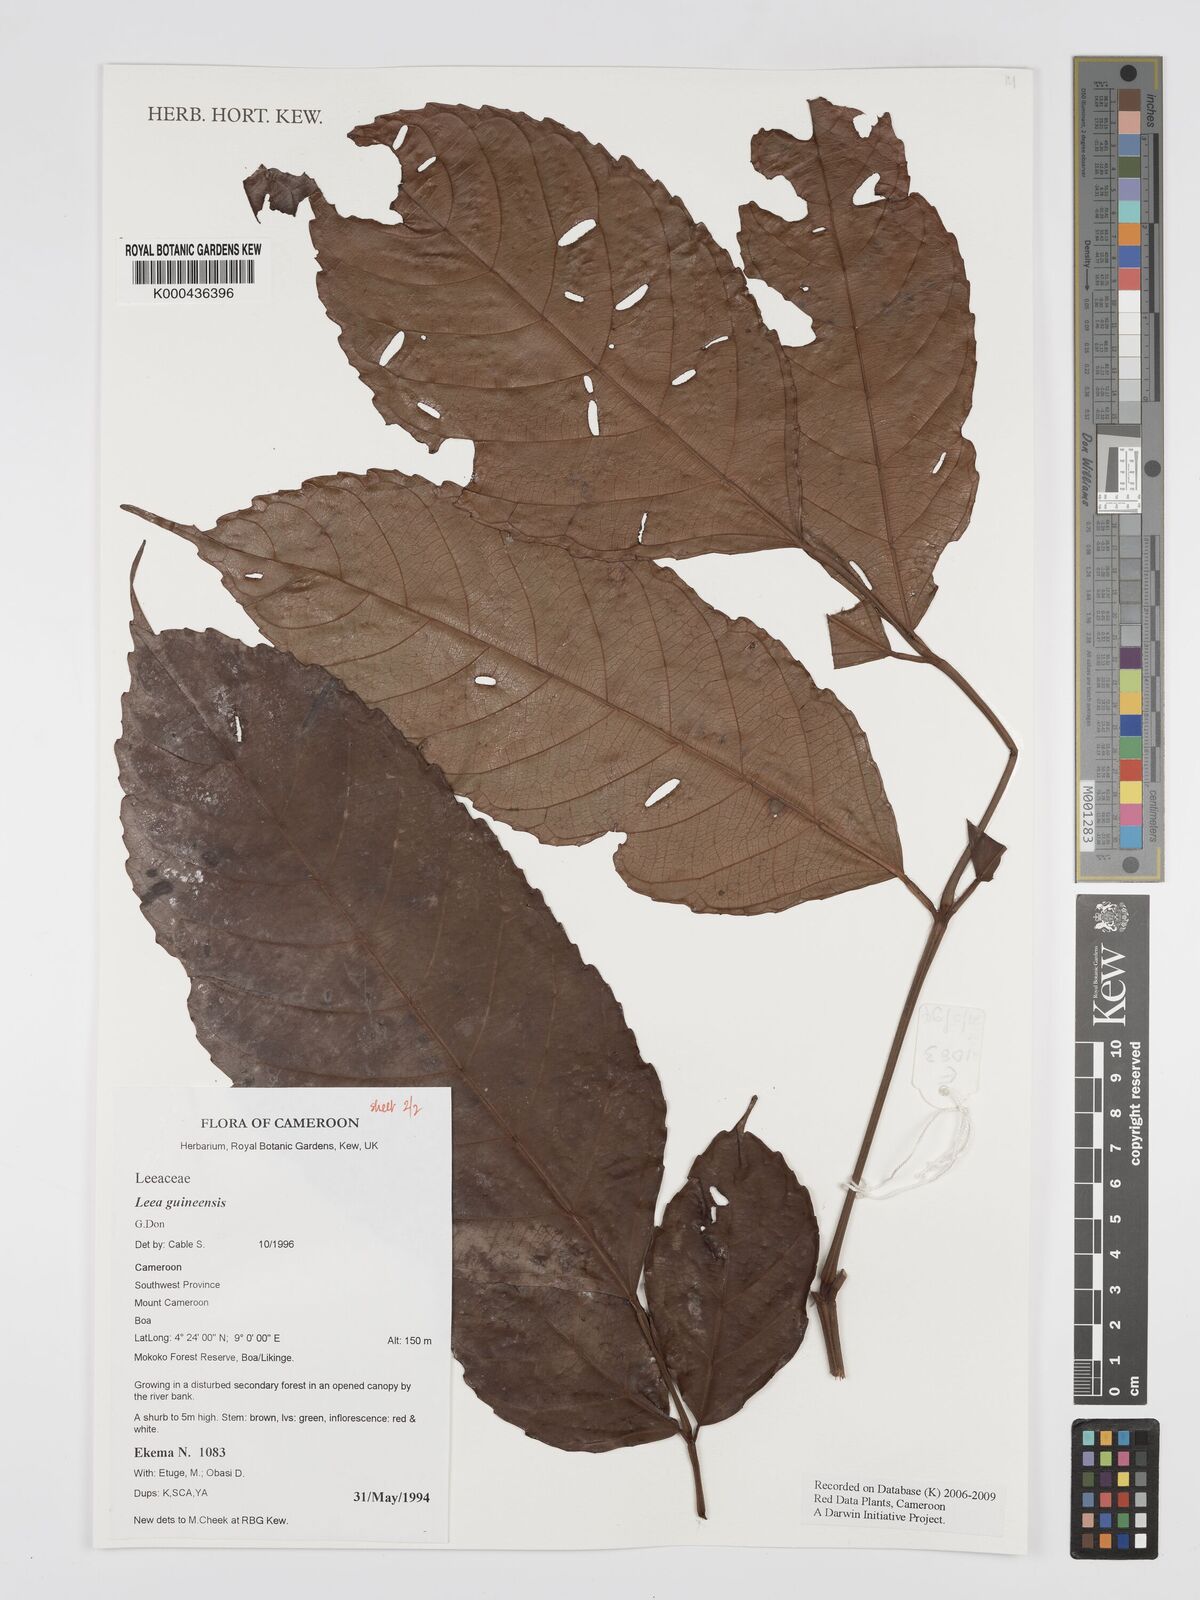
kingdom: Plantae
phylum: Tracheophyta
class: Magnoliopsida
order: Vitales
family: Vitaceae
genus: Leea
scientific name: Leea guineensis
